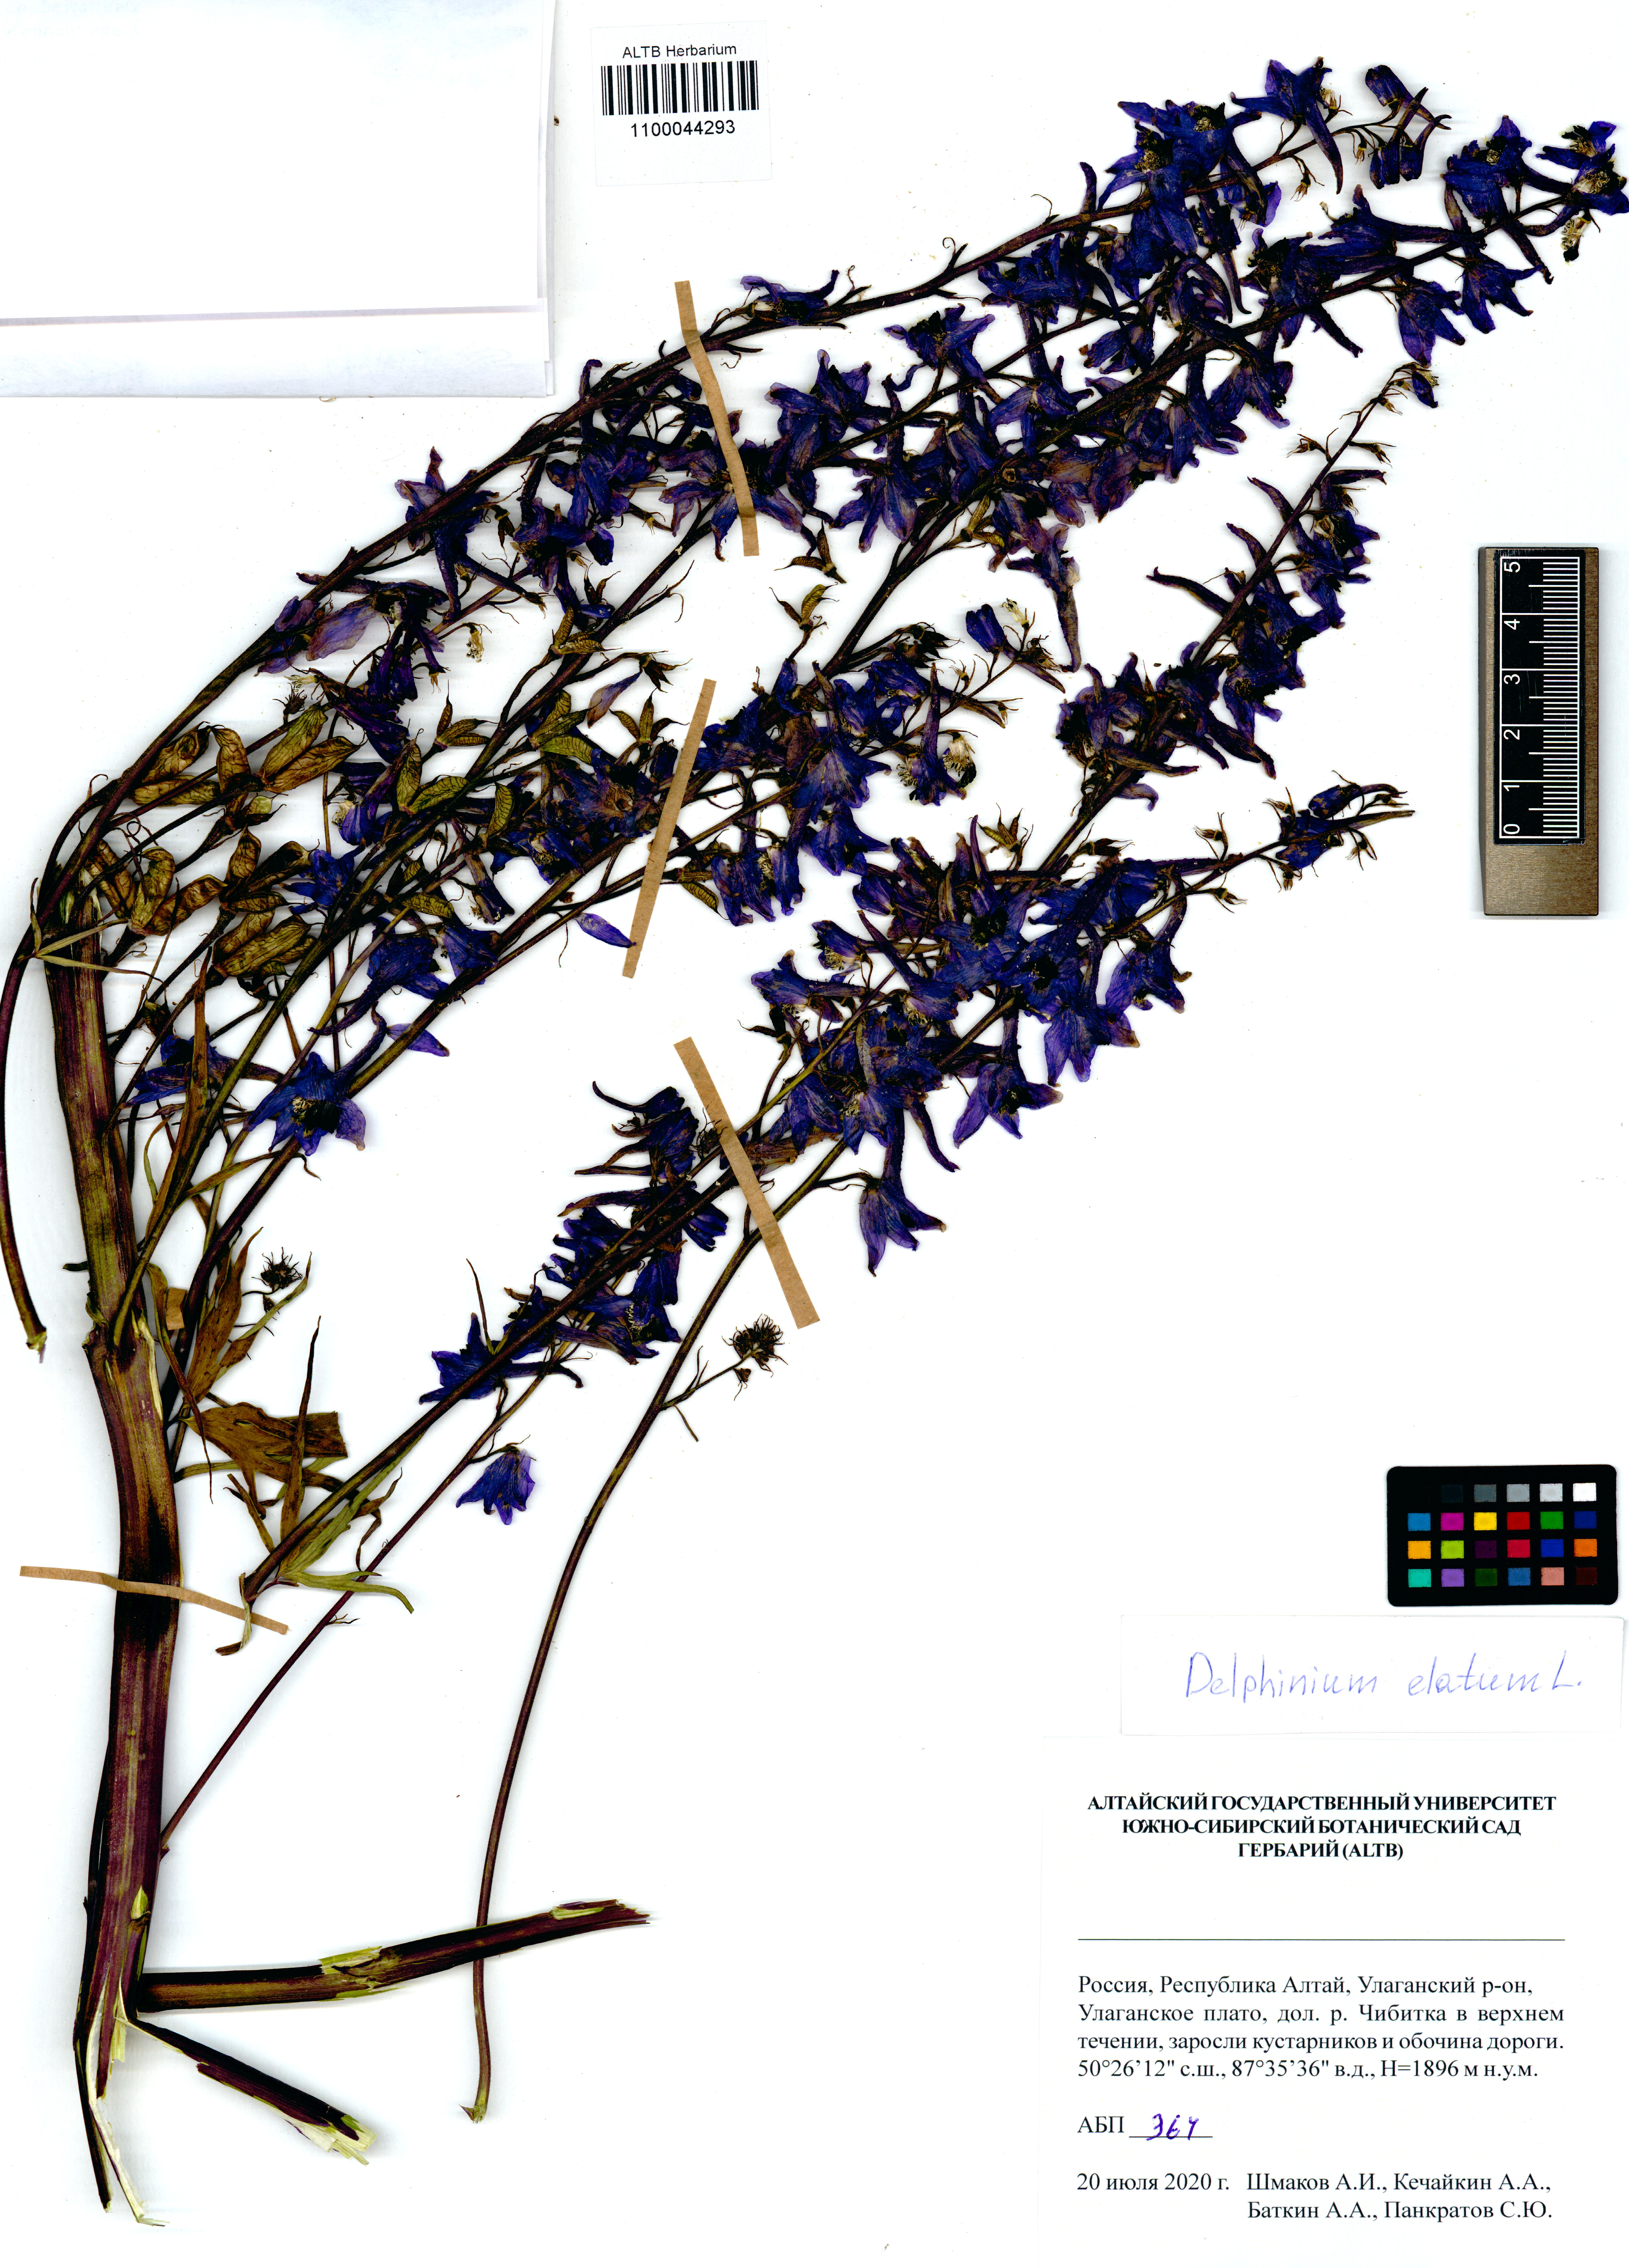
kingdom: Plantae
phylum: Tracheophyta
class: Magnoliopsida
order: Ranunculales
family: Ranunculaceae
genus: Delphinium
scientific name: Delphinium elatum
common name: Candle larkspur
